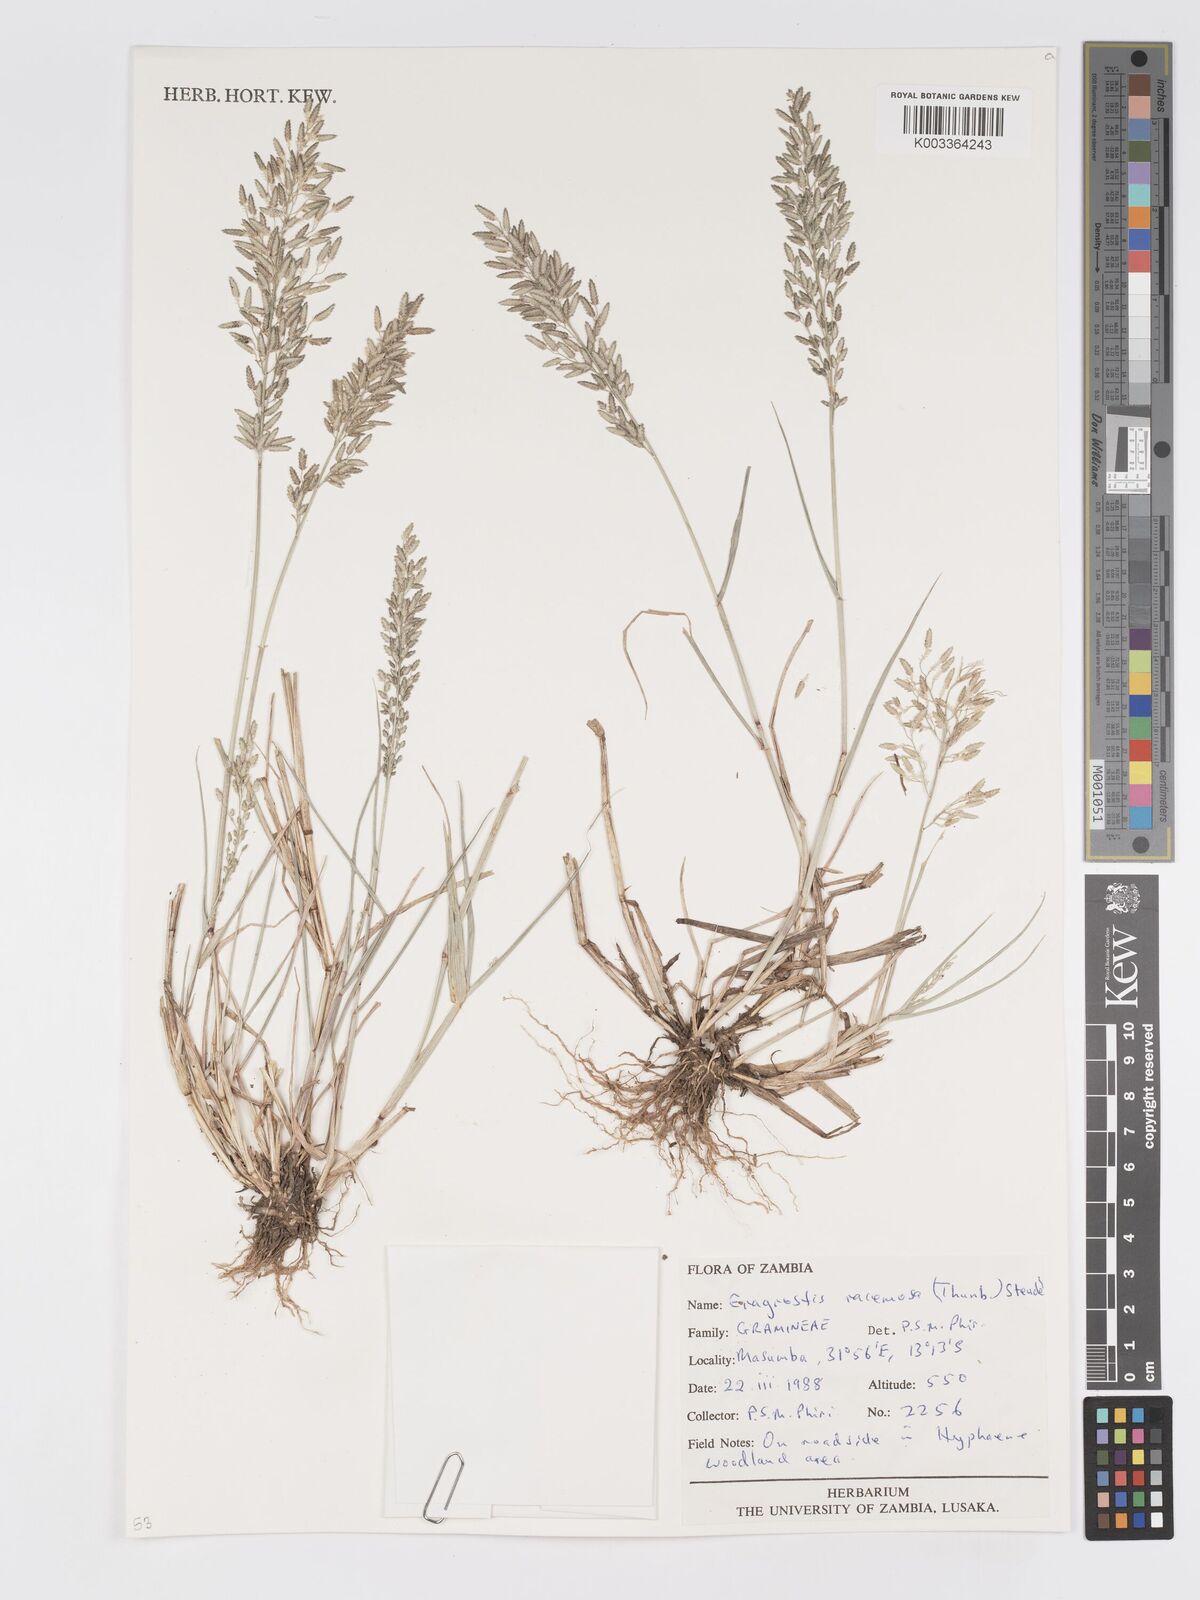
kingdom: Plantae
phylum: Tracheophyta
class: Liliopsida
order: Poales
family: Poaceae
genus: Eragrostis
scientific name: Eragrostis racemosa
